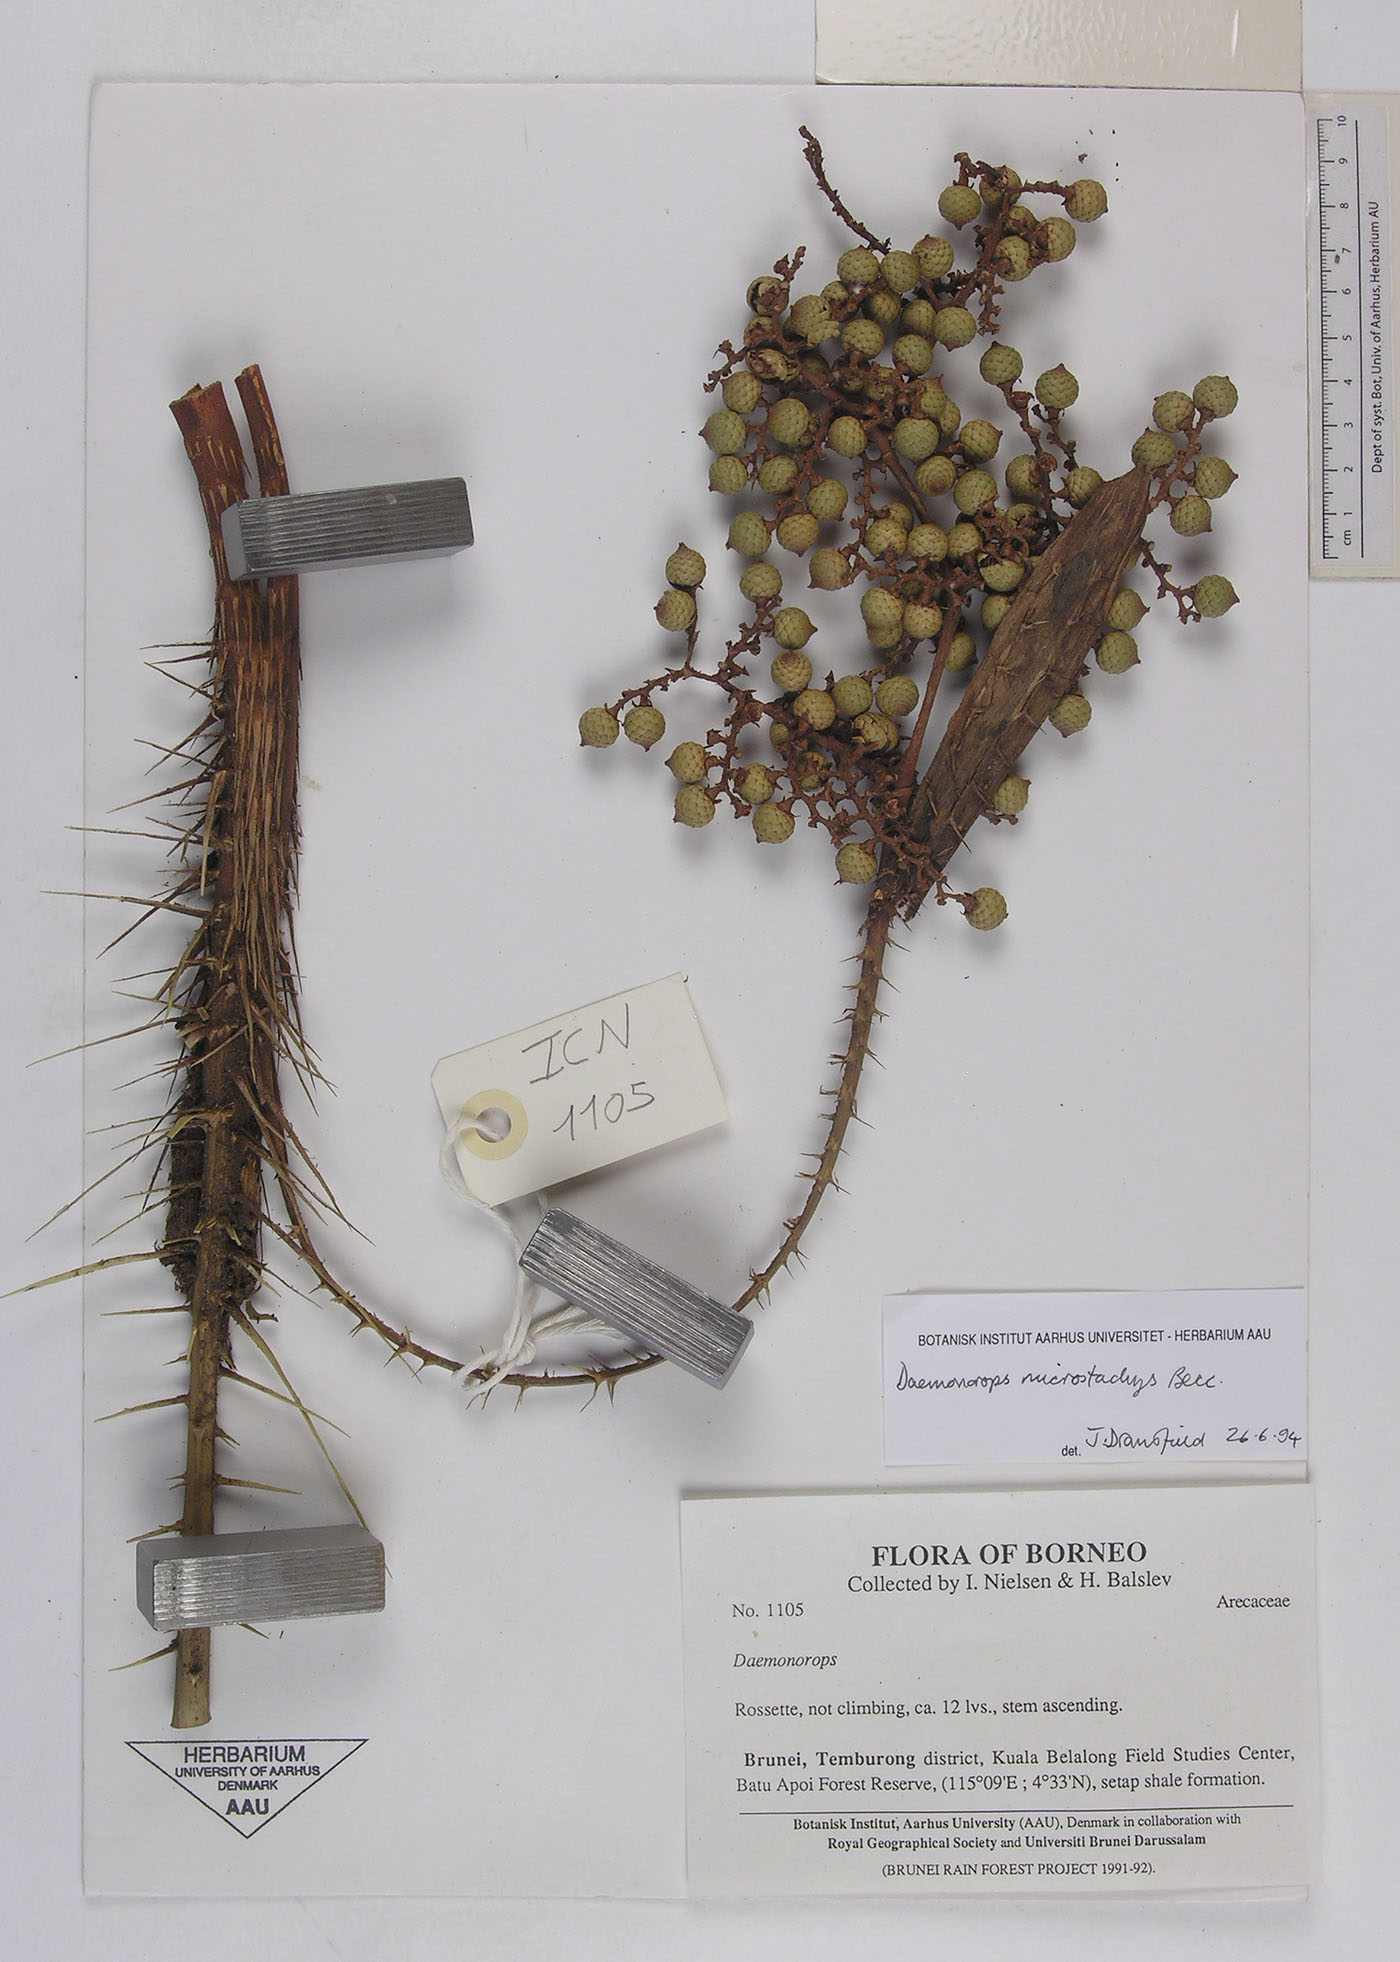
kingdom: Plantae
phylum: Tracheophyta
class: Liliopsida
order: Arecales
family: Arecaceae
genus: Calamus
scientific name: Calamus kunstleri
